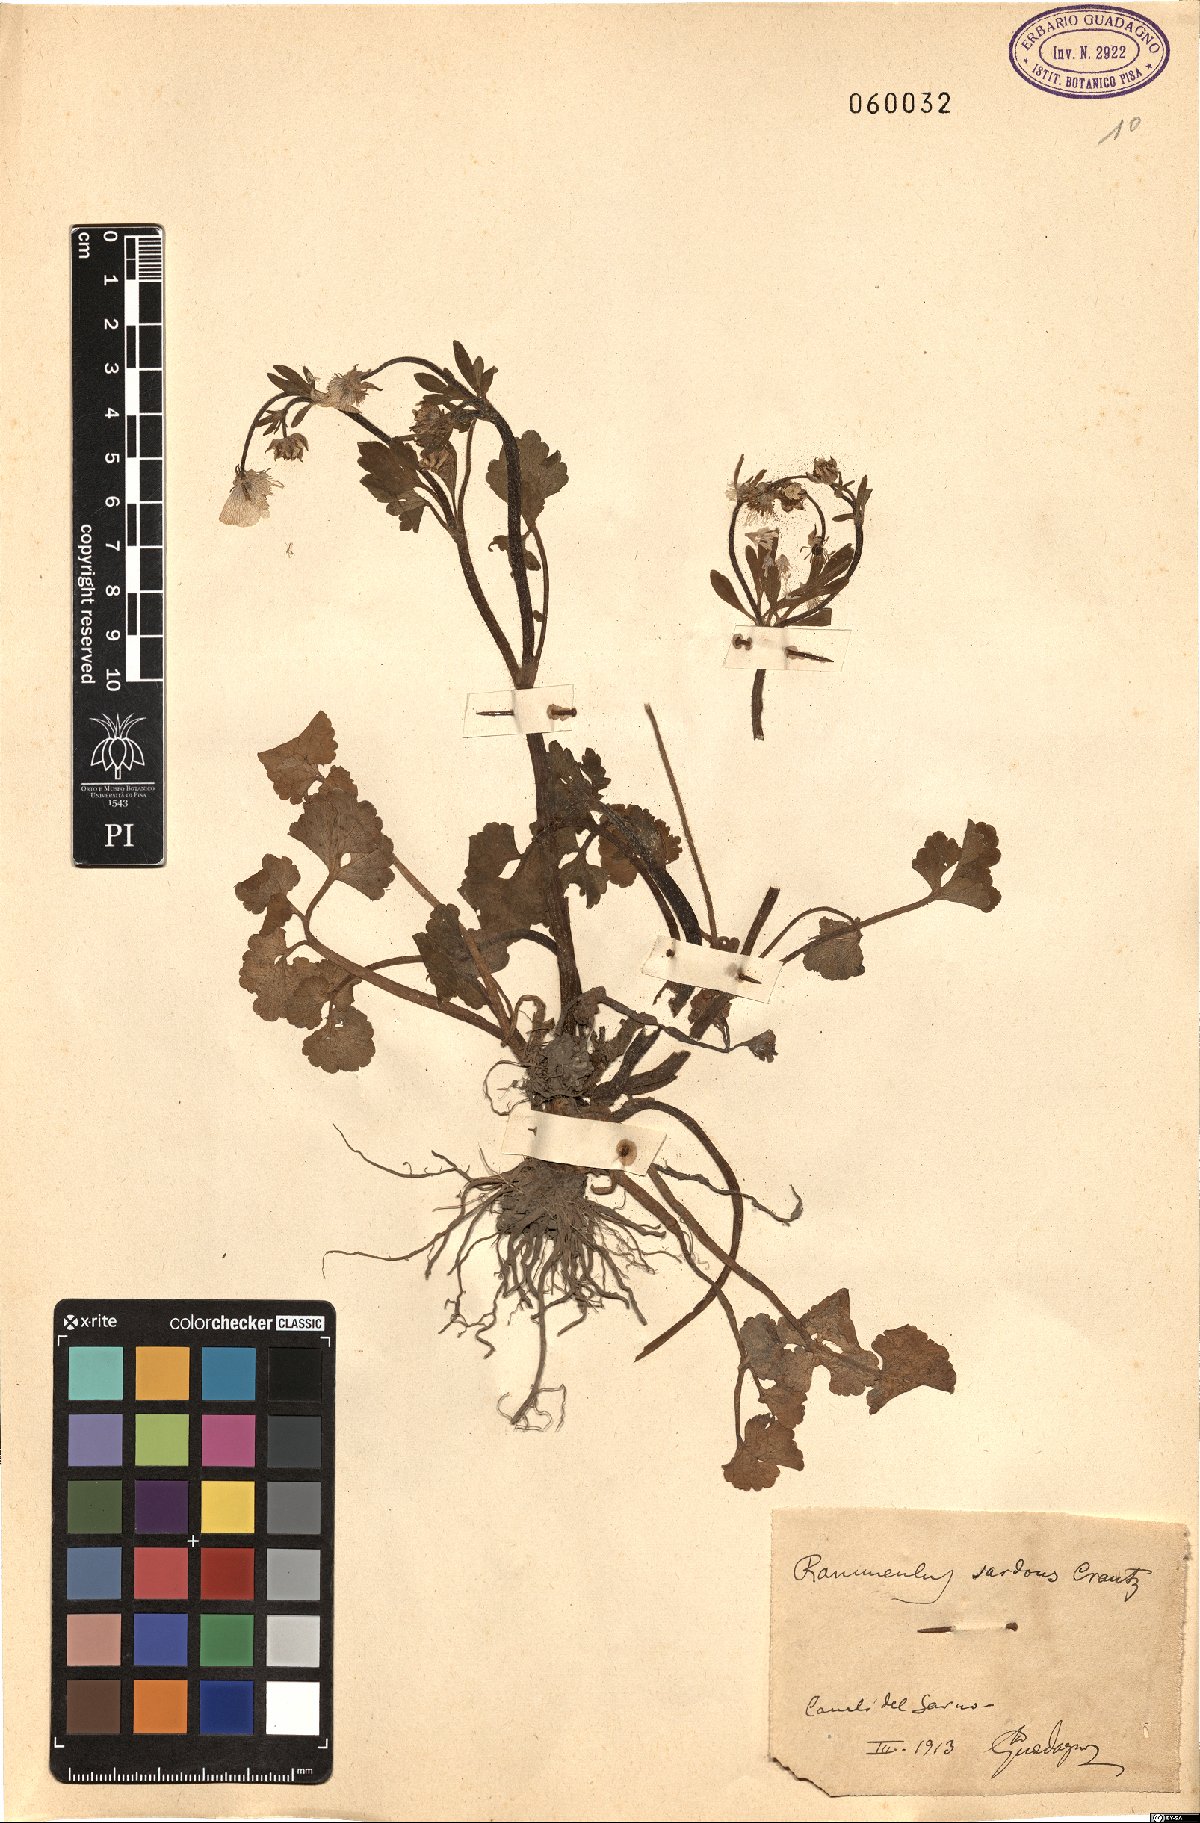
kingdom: Plantae
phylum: Tracheophyta
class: Magnoliopsida
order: Ranunculales
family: Ranunculaceae
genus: Ranunculus
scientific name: Ranunculus sardous
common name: Hairy buttercup
